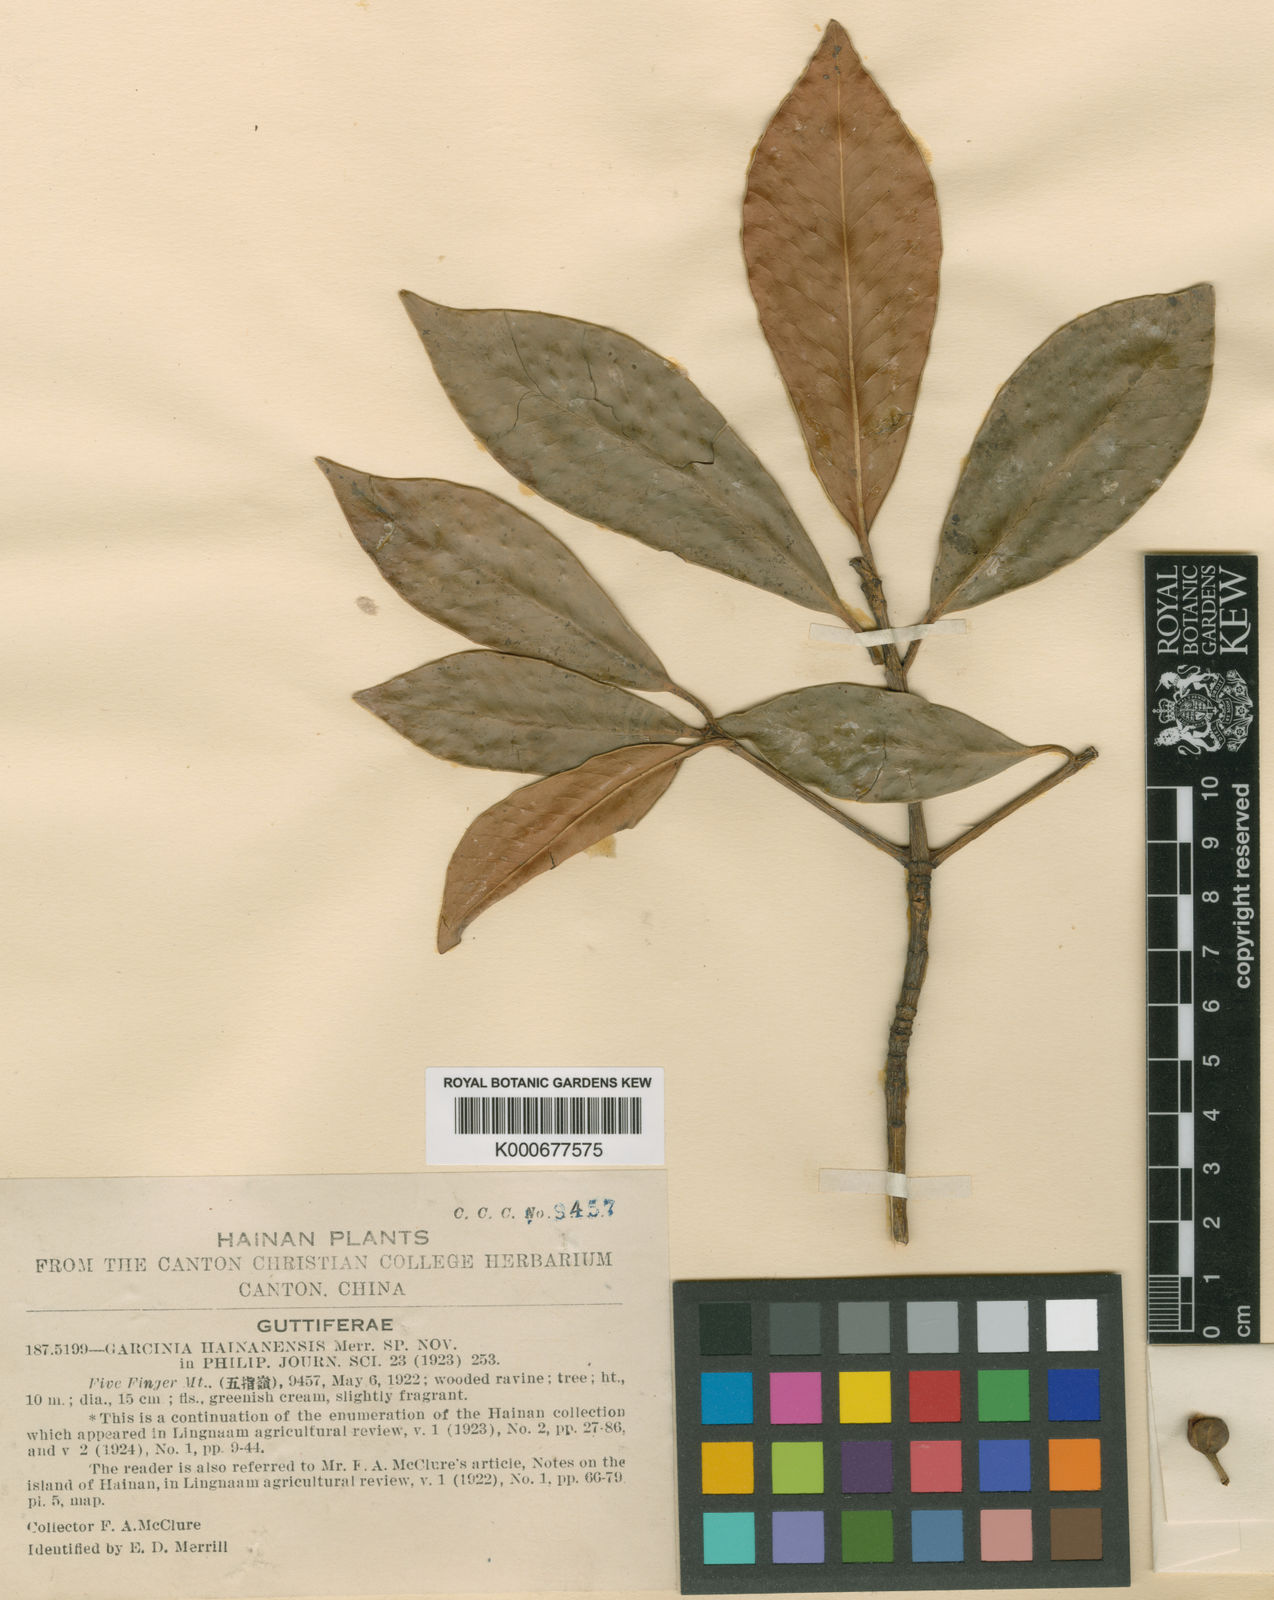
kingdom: Plantae
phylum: Tracheophyta
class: Magnoliopsida
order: Malpighiales
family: Clusiaceae
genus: Garcinia
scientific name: Garcinia oblongifolia
